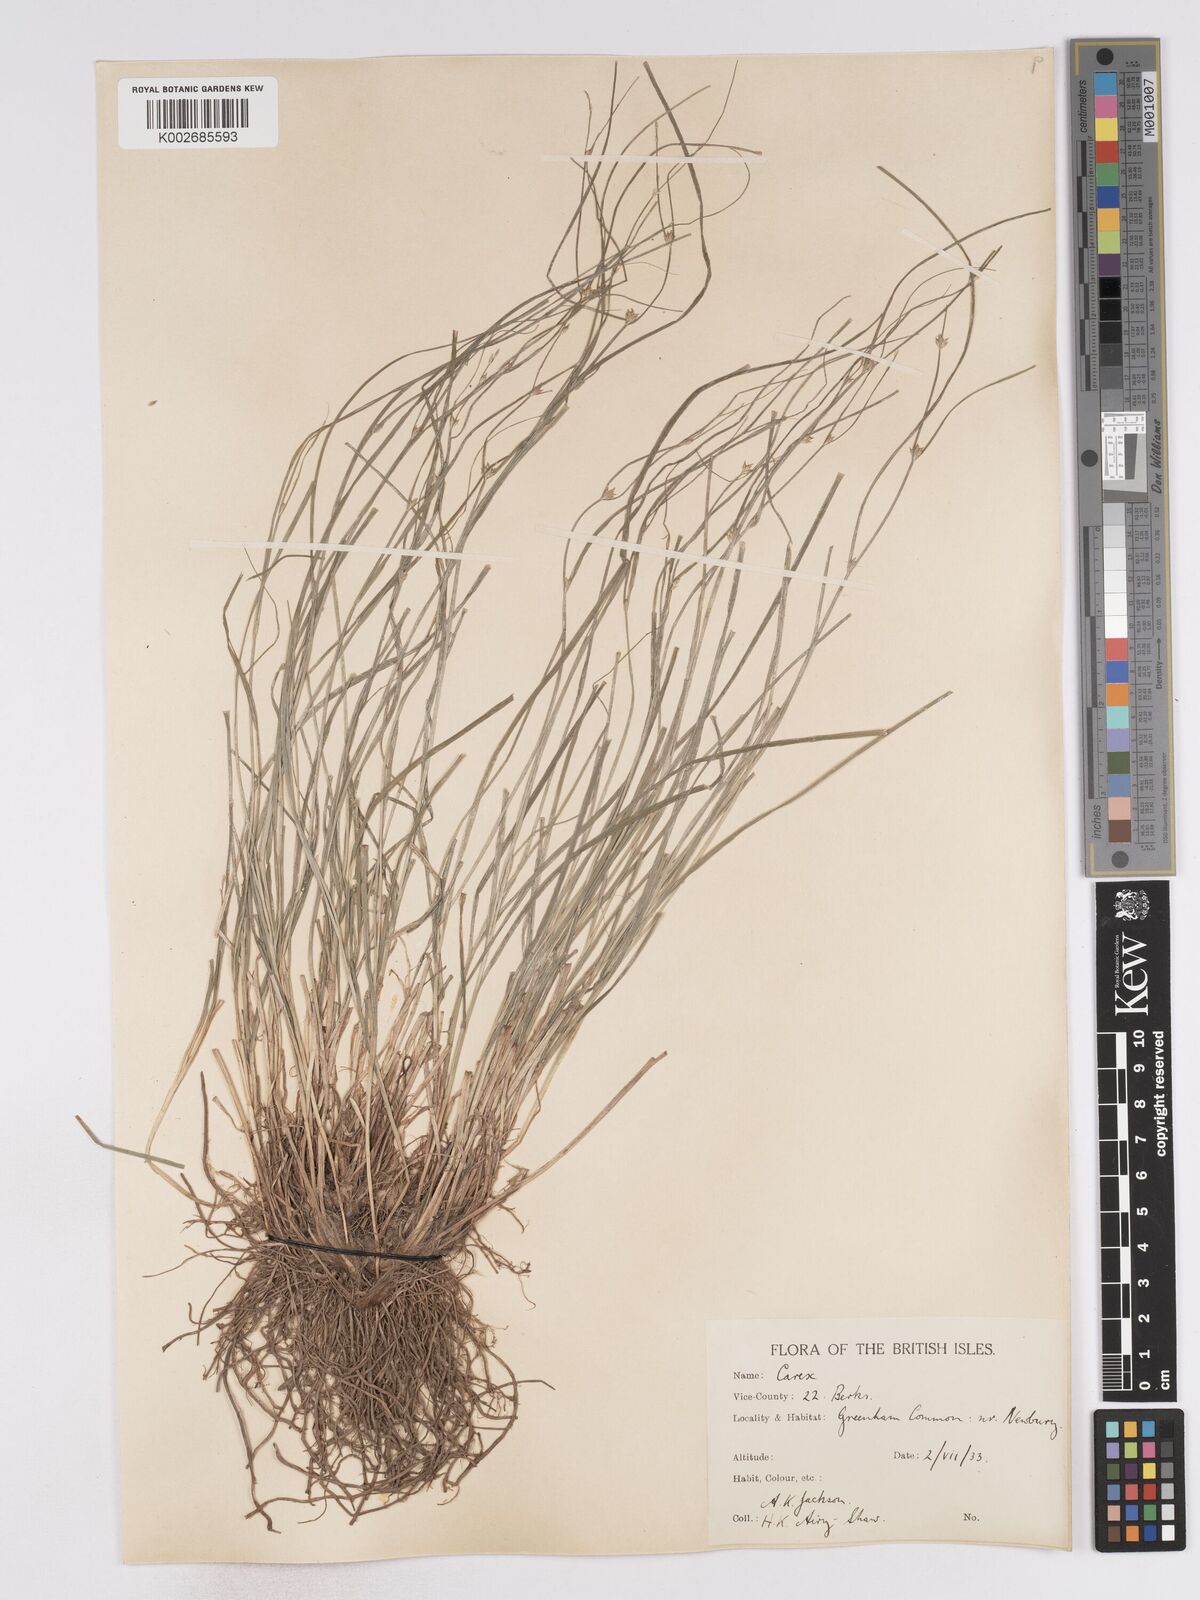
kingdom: Plantae
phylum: Tracheophyta
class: Liliopsida
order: Poales
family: Cyperaceae
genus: Carex
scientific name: Carex remota
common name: Remote sedge
